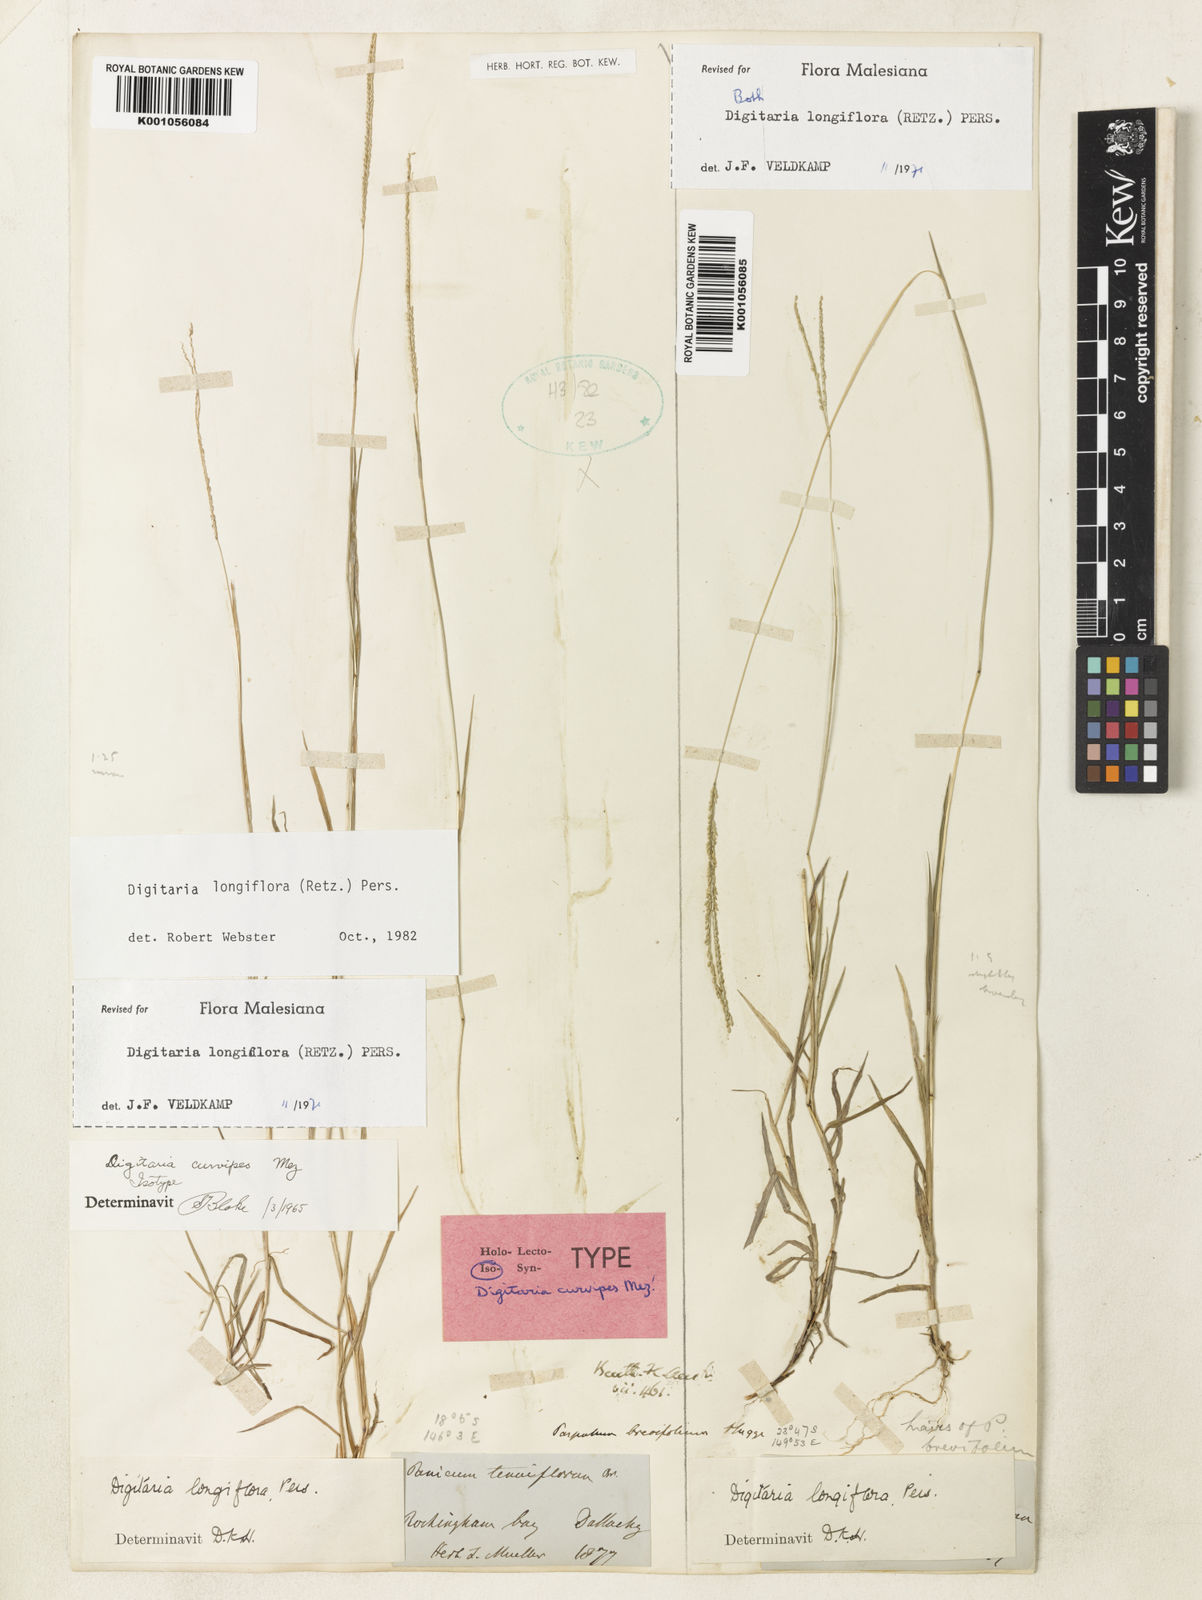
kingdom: Plantae
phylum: Tracheophyta
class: Liliopsida
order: Poales
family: Poaceae
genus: Digitaria
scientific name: Digitaria longiflora
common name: Wire crabgrass
